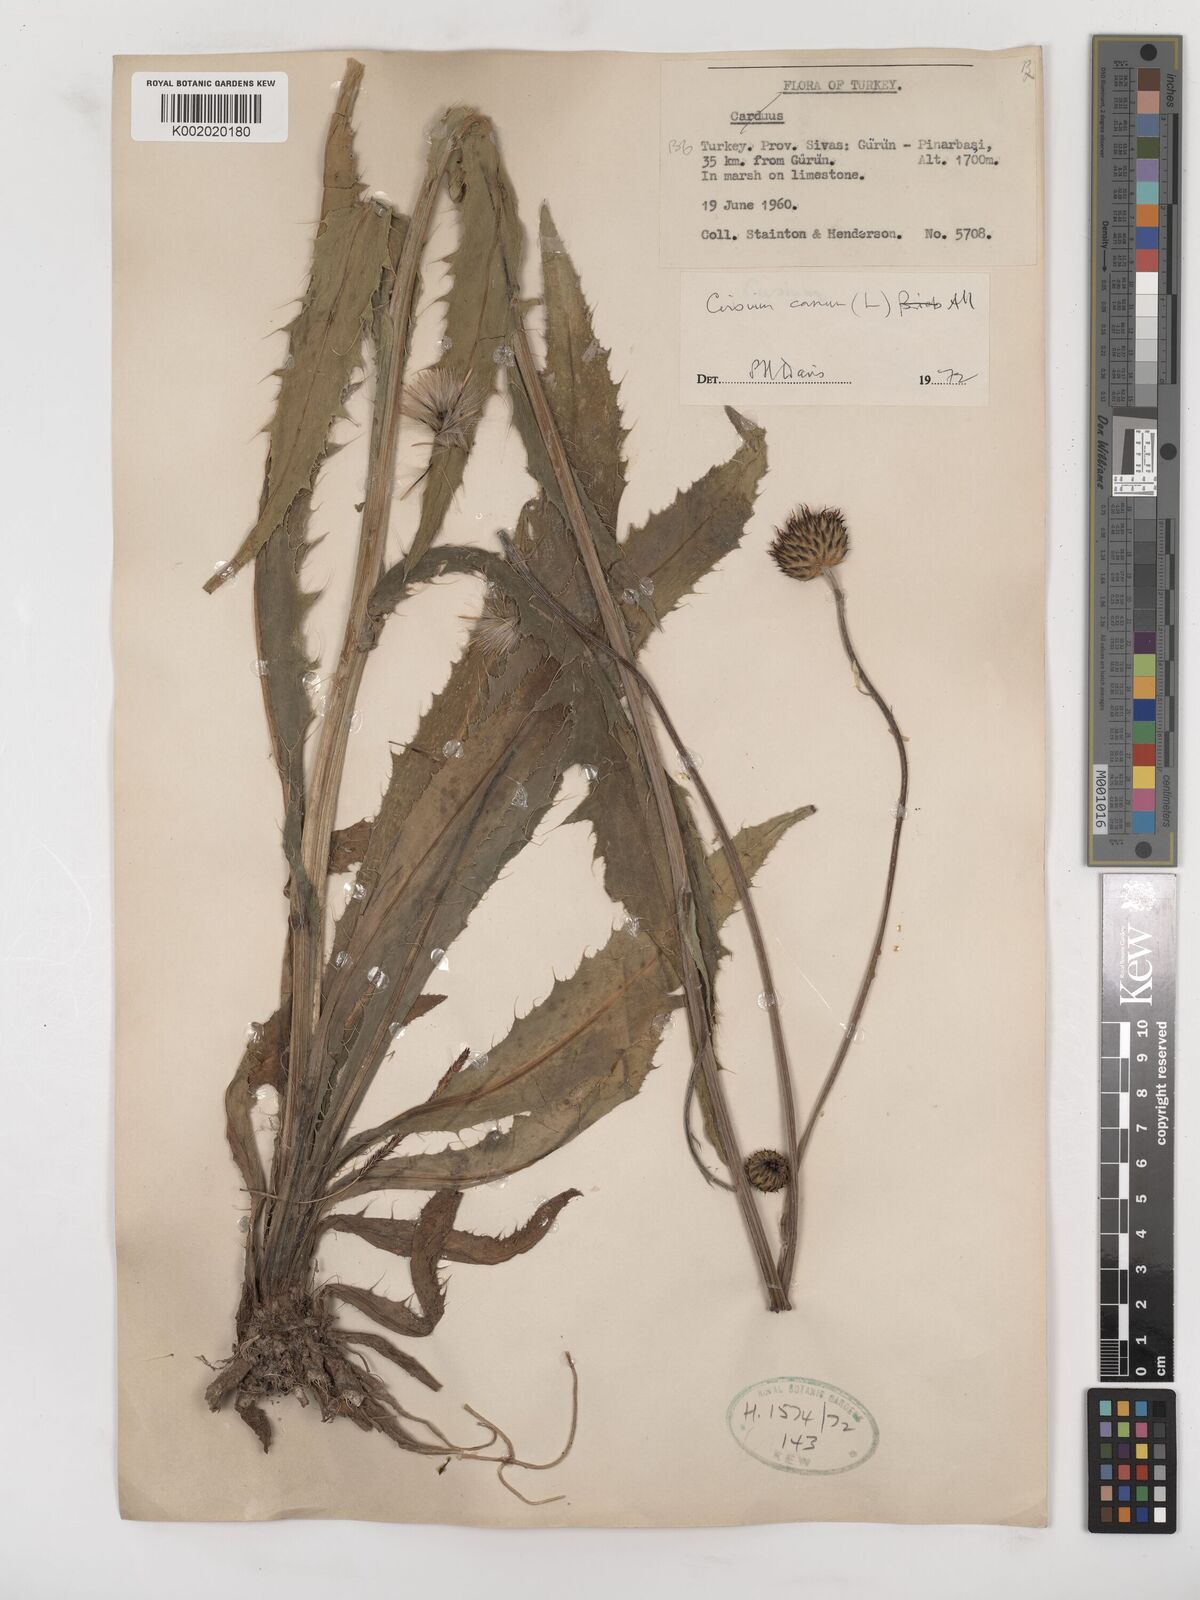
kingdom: Plantae
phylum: Tracheophyta
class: Magnoliopsida
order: Asterales
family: Asteraceae
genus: Cirsium
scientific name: Cirsium canum
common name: Queen anne's thistle
